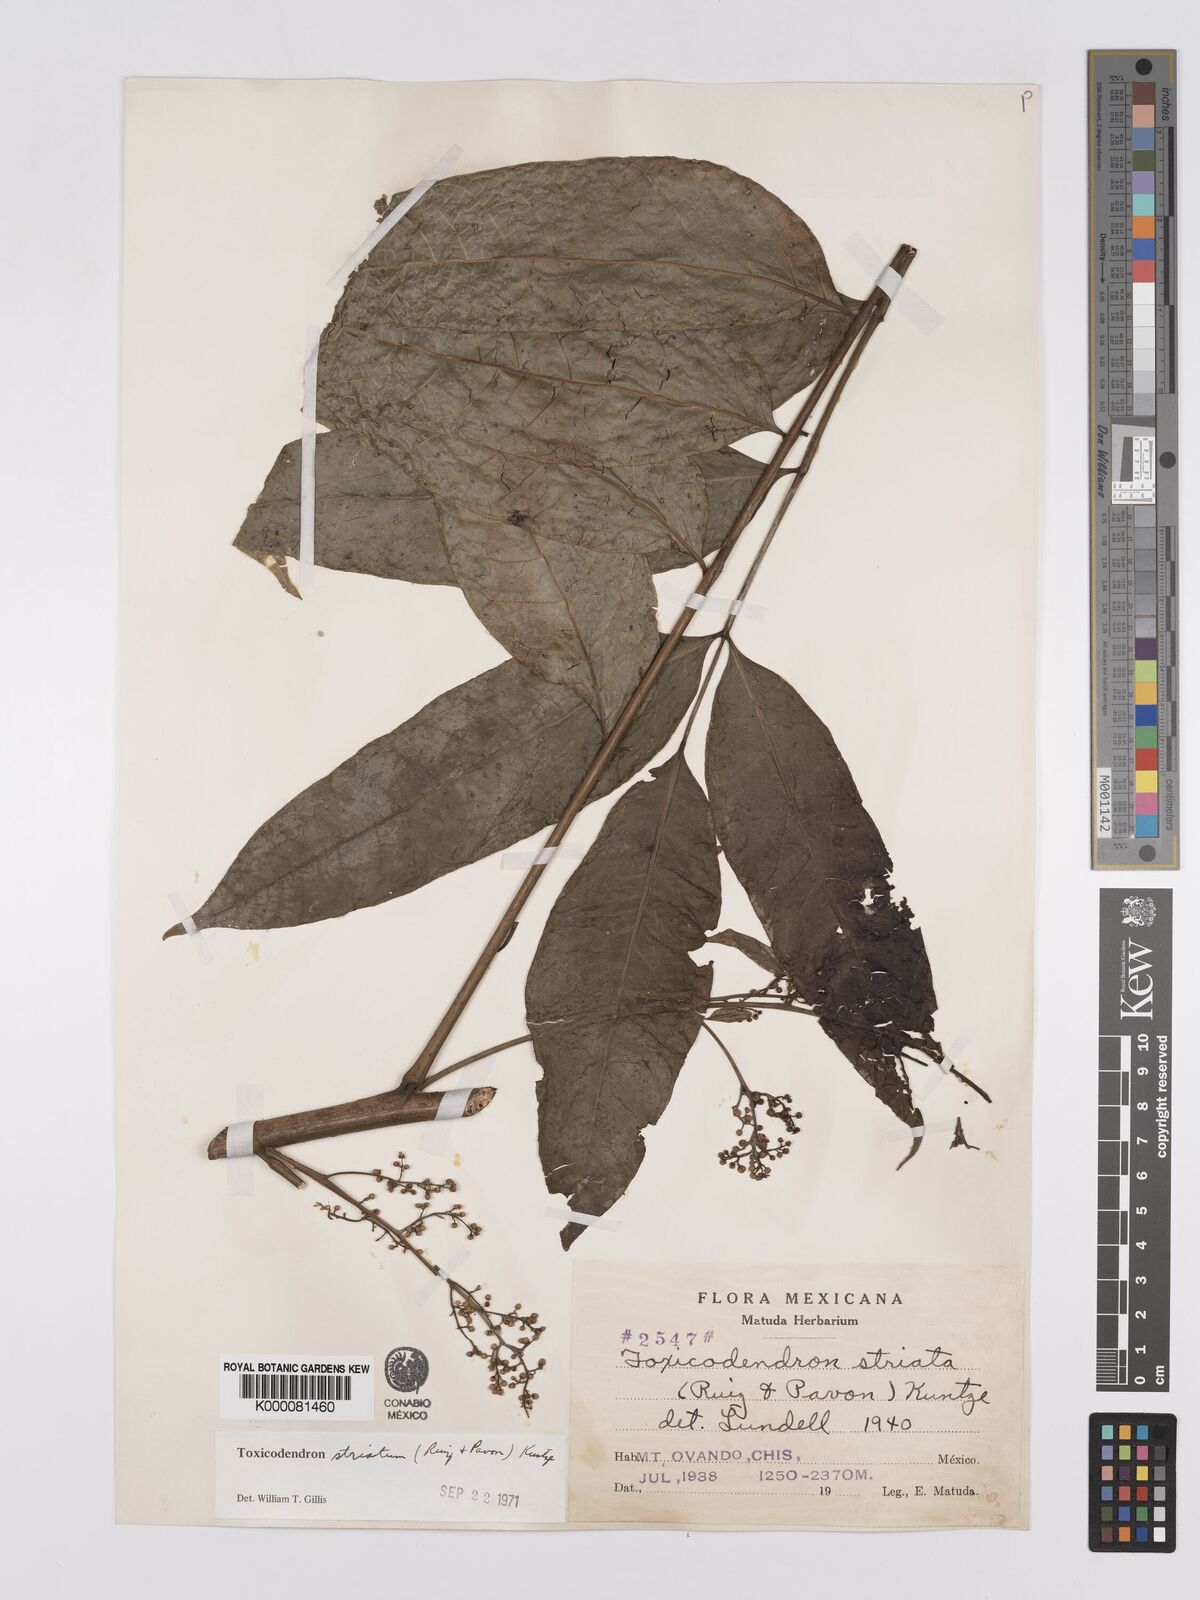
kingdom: Plantae
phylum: Tracheophyta
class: Magnoliopsida
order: Sapindales
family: Anacardiaceae
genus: Toxicodendron
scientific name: Toxicodendron striatum
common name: Sumac
